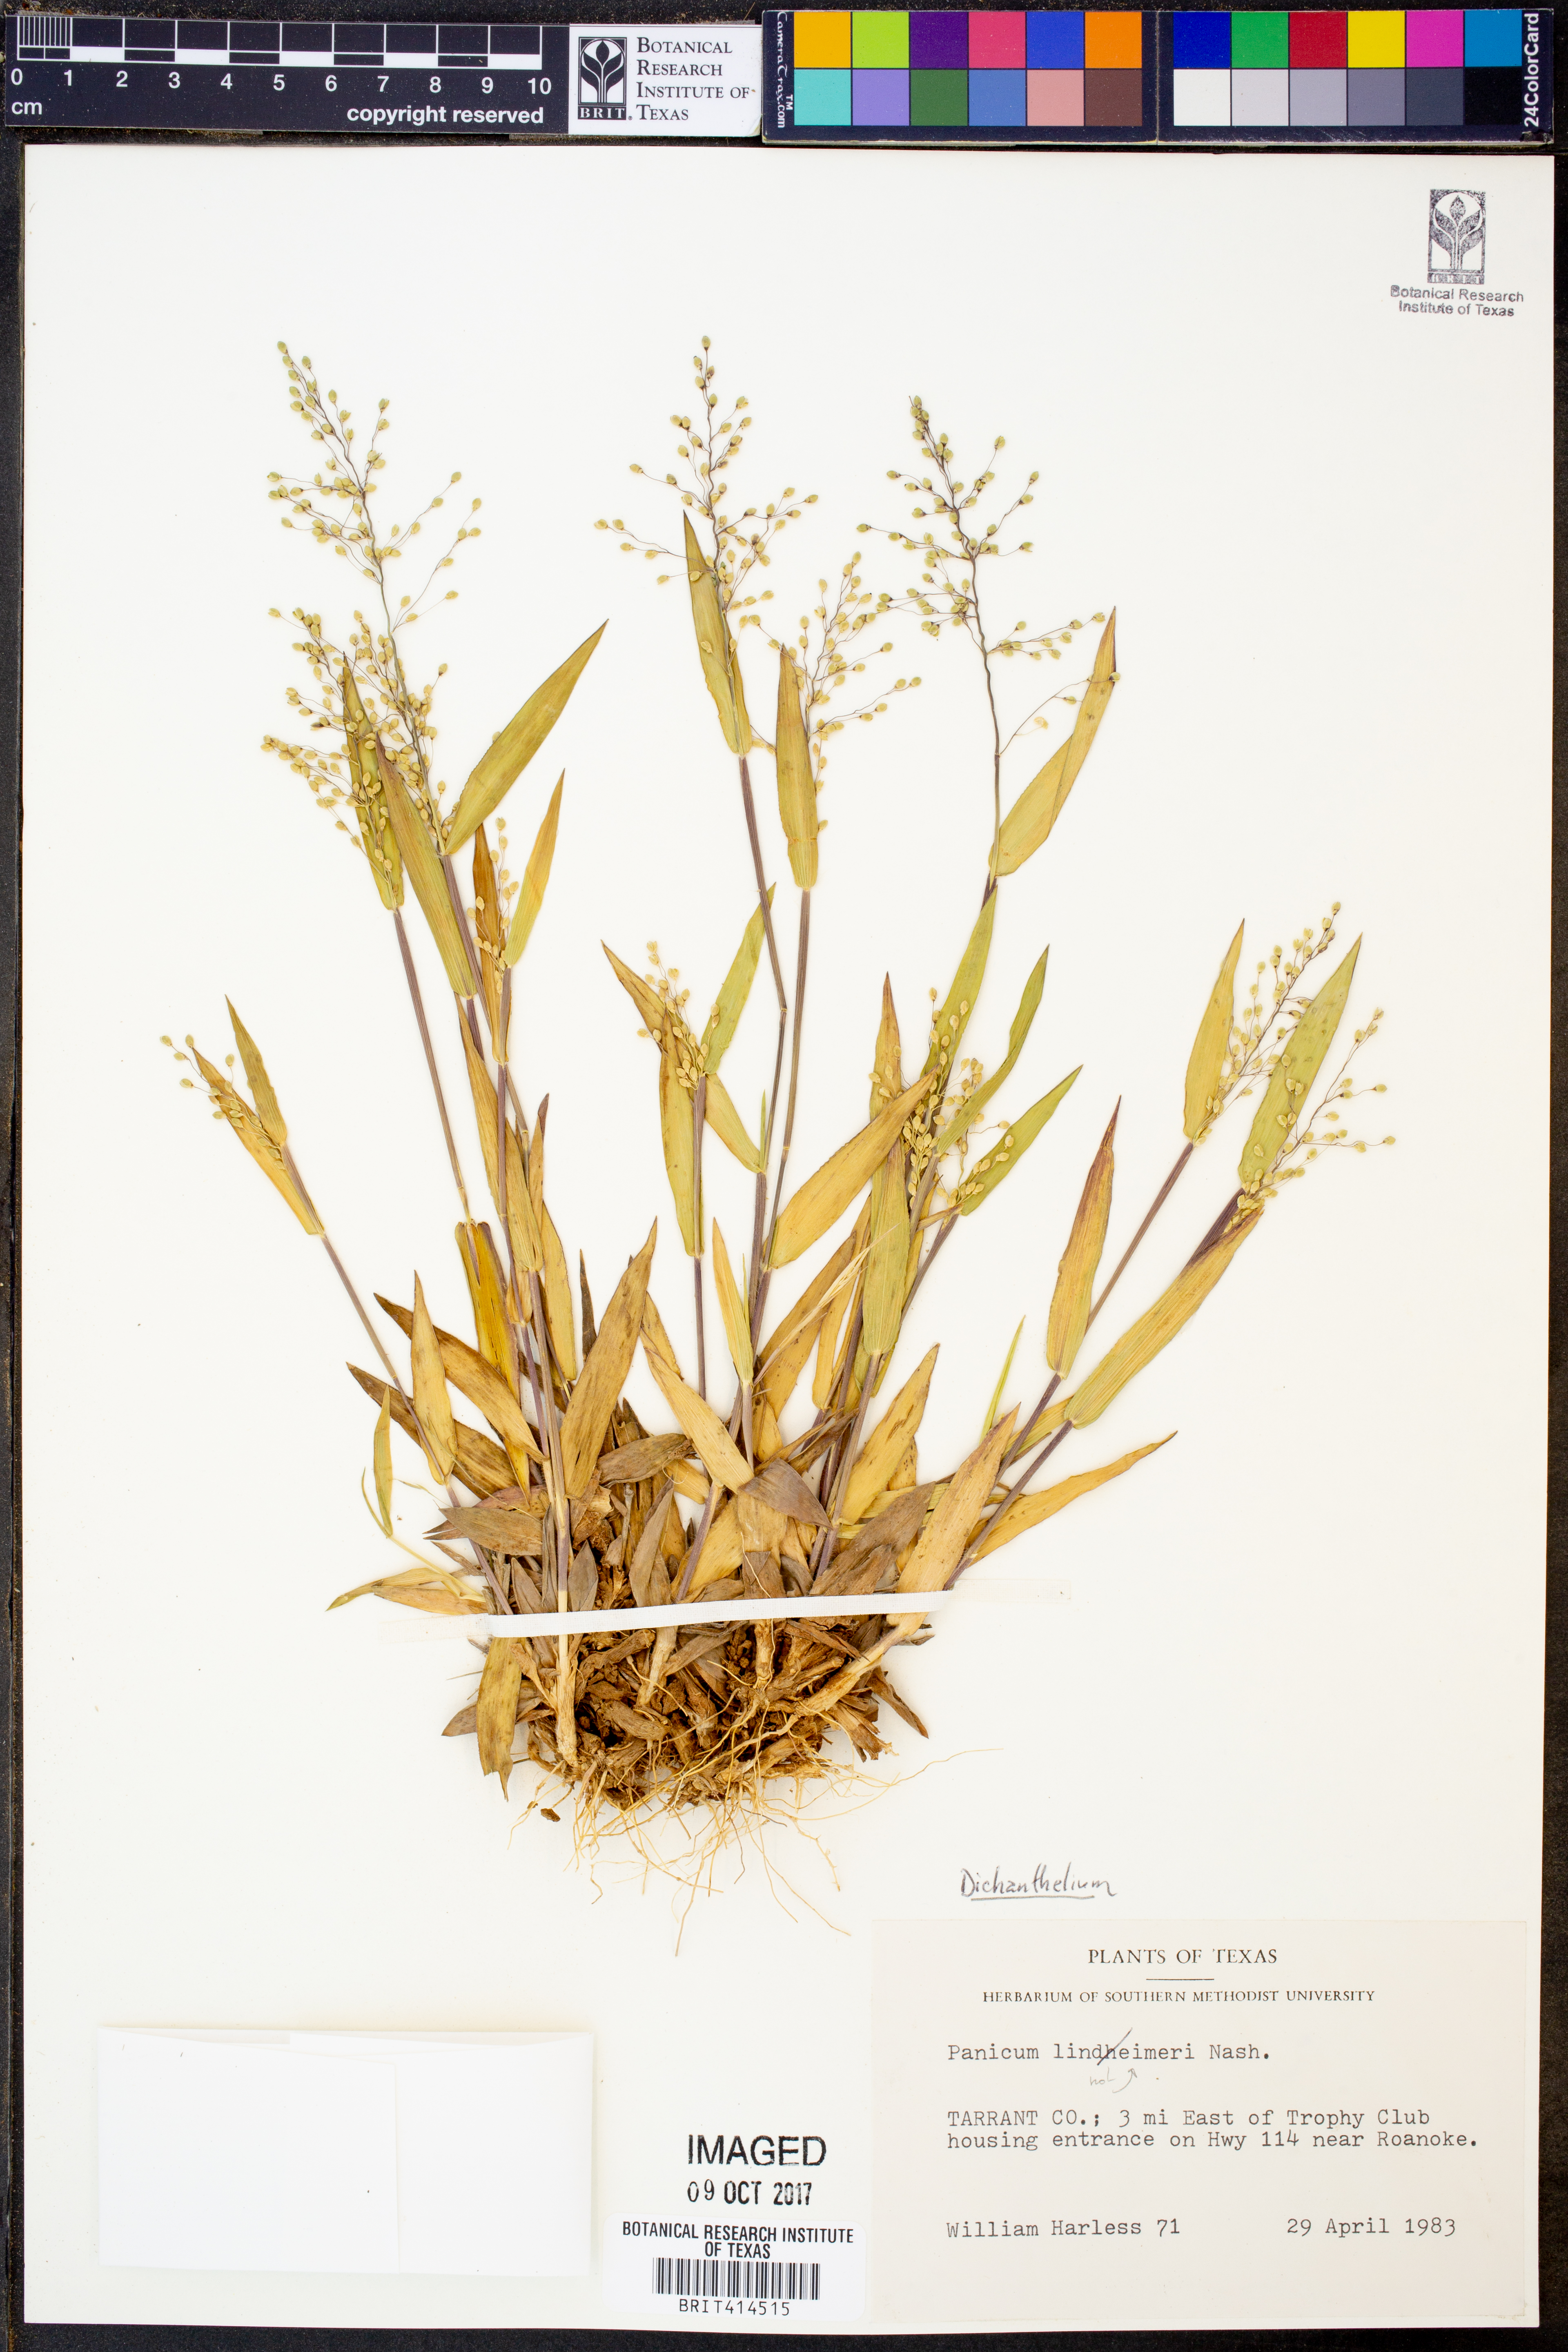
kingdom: Plantae
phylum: Tracheophyta
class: Liliopsida
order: Poales
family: Poaceae
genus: Dichanthelium
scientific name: Dichanthelium
